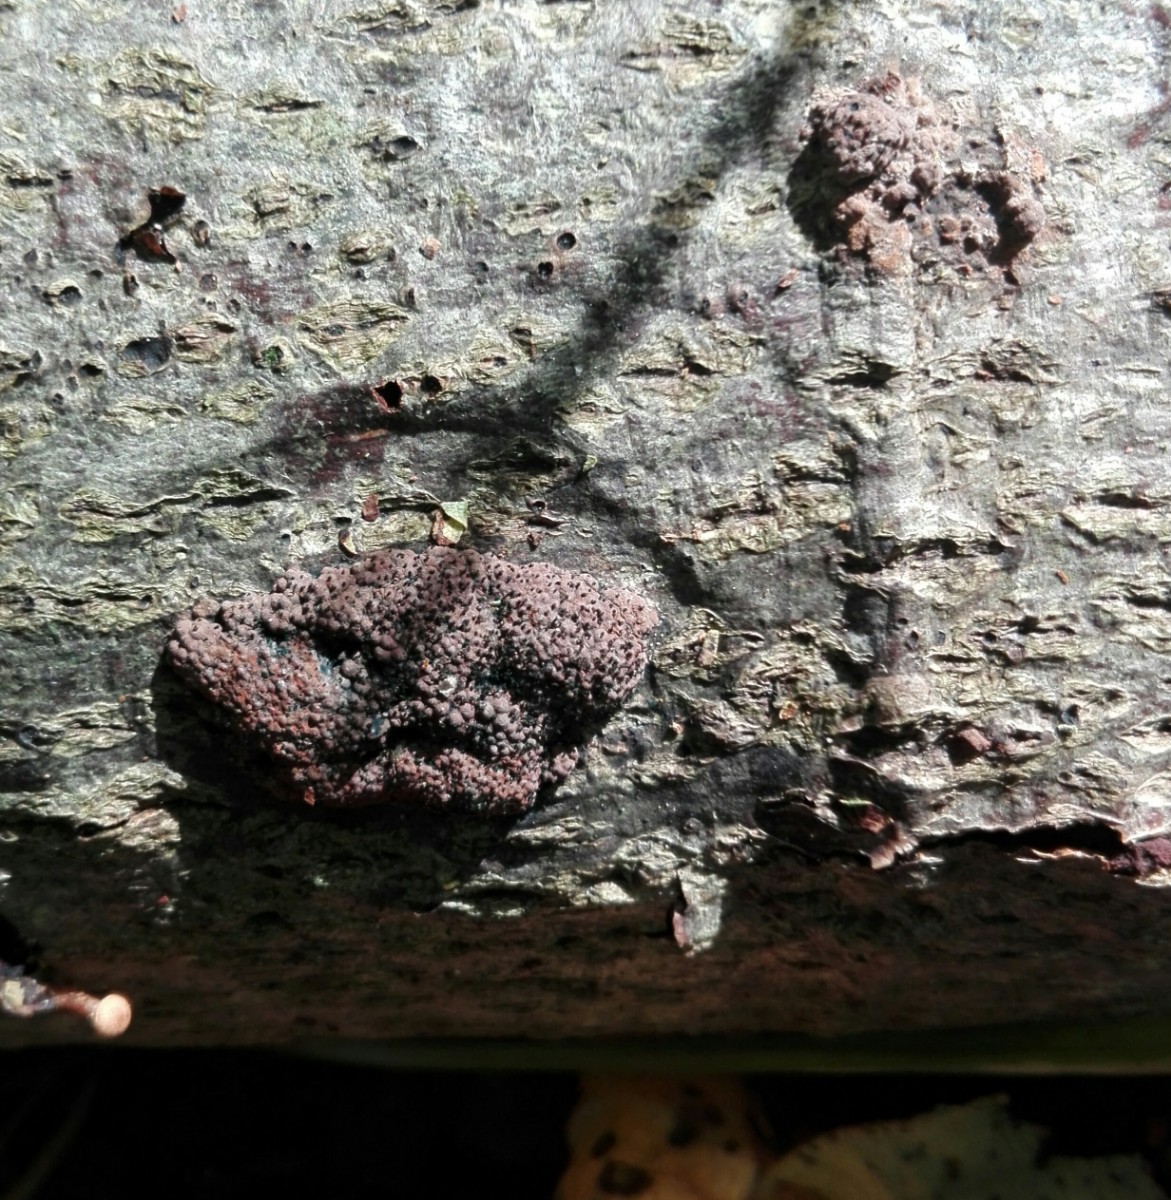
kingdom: Fungi
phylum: Ascomycota
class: Sordariomycetes
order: Xylariales
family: Hypoxylaceae
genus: Hypoxylon
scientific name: Hypoxylon rubiginosum
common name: rustfarvet kulbær
